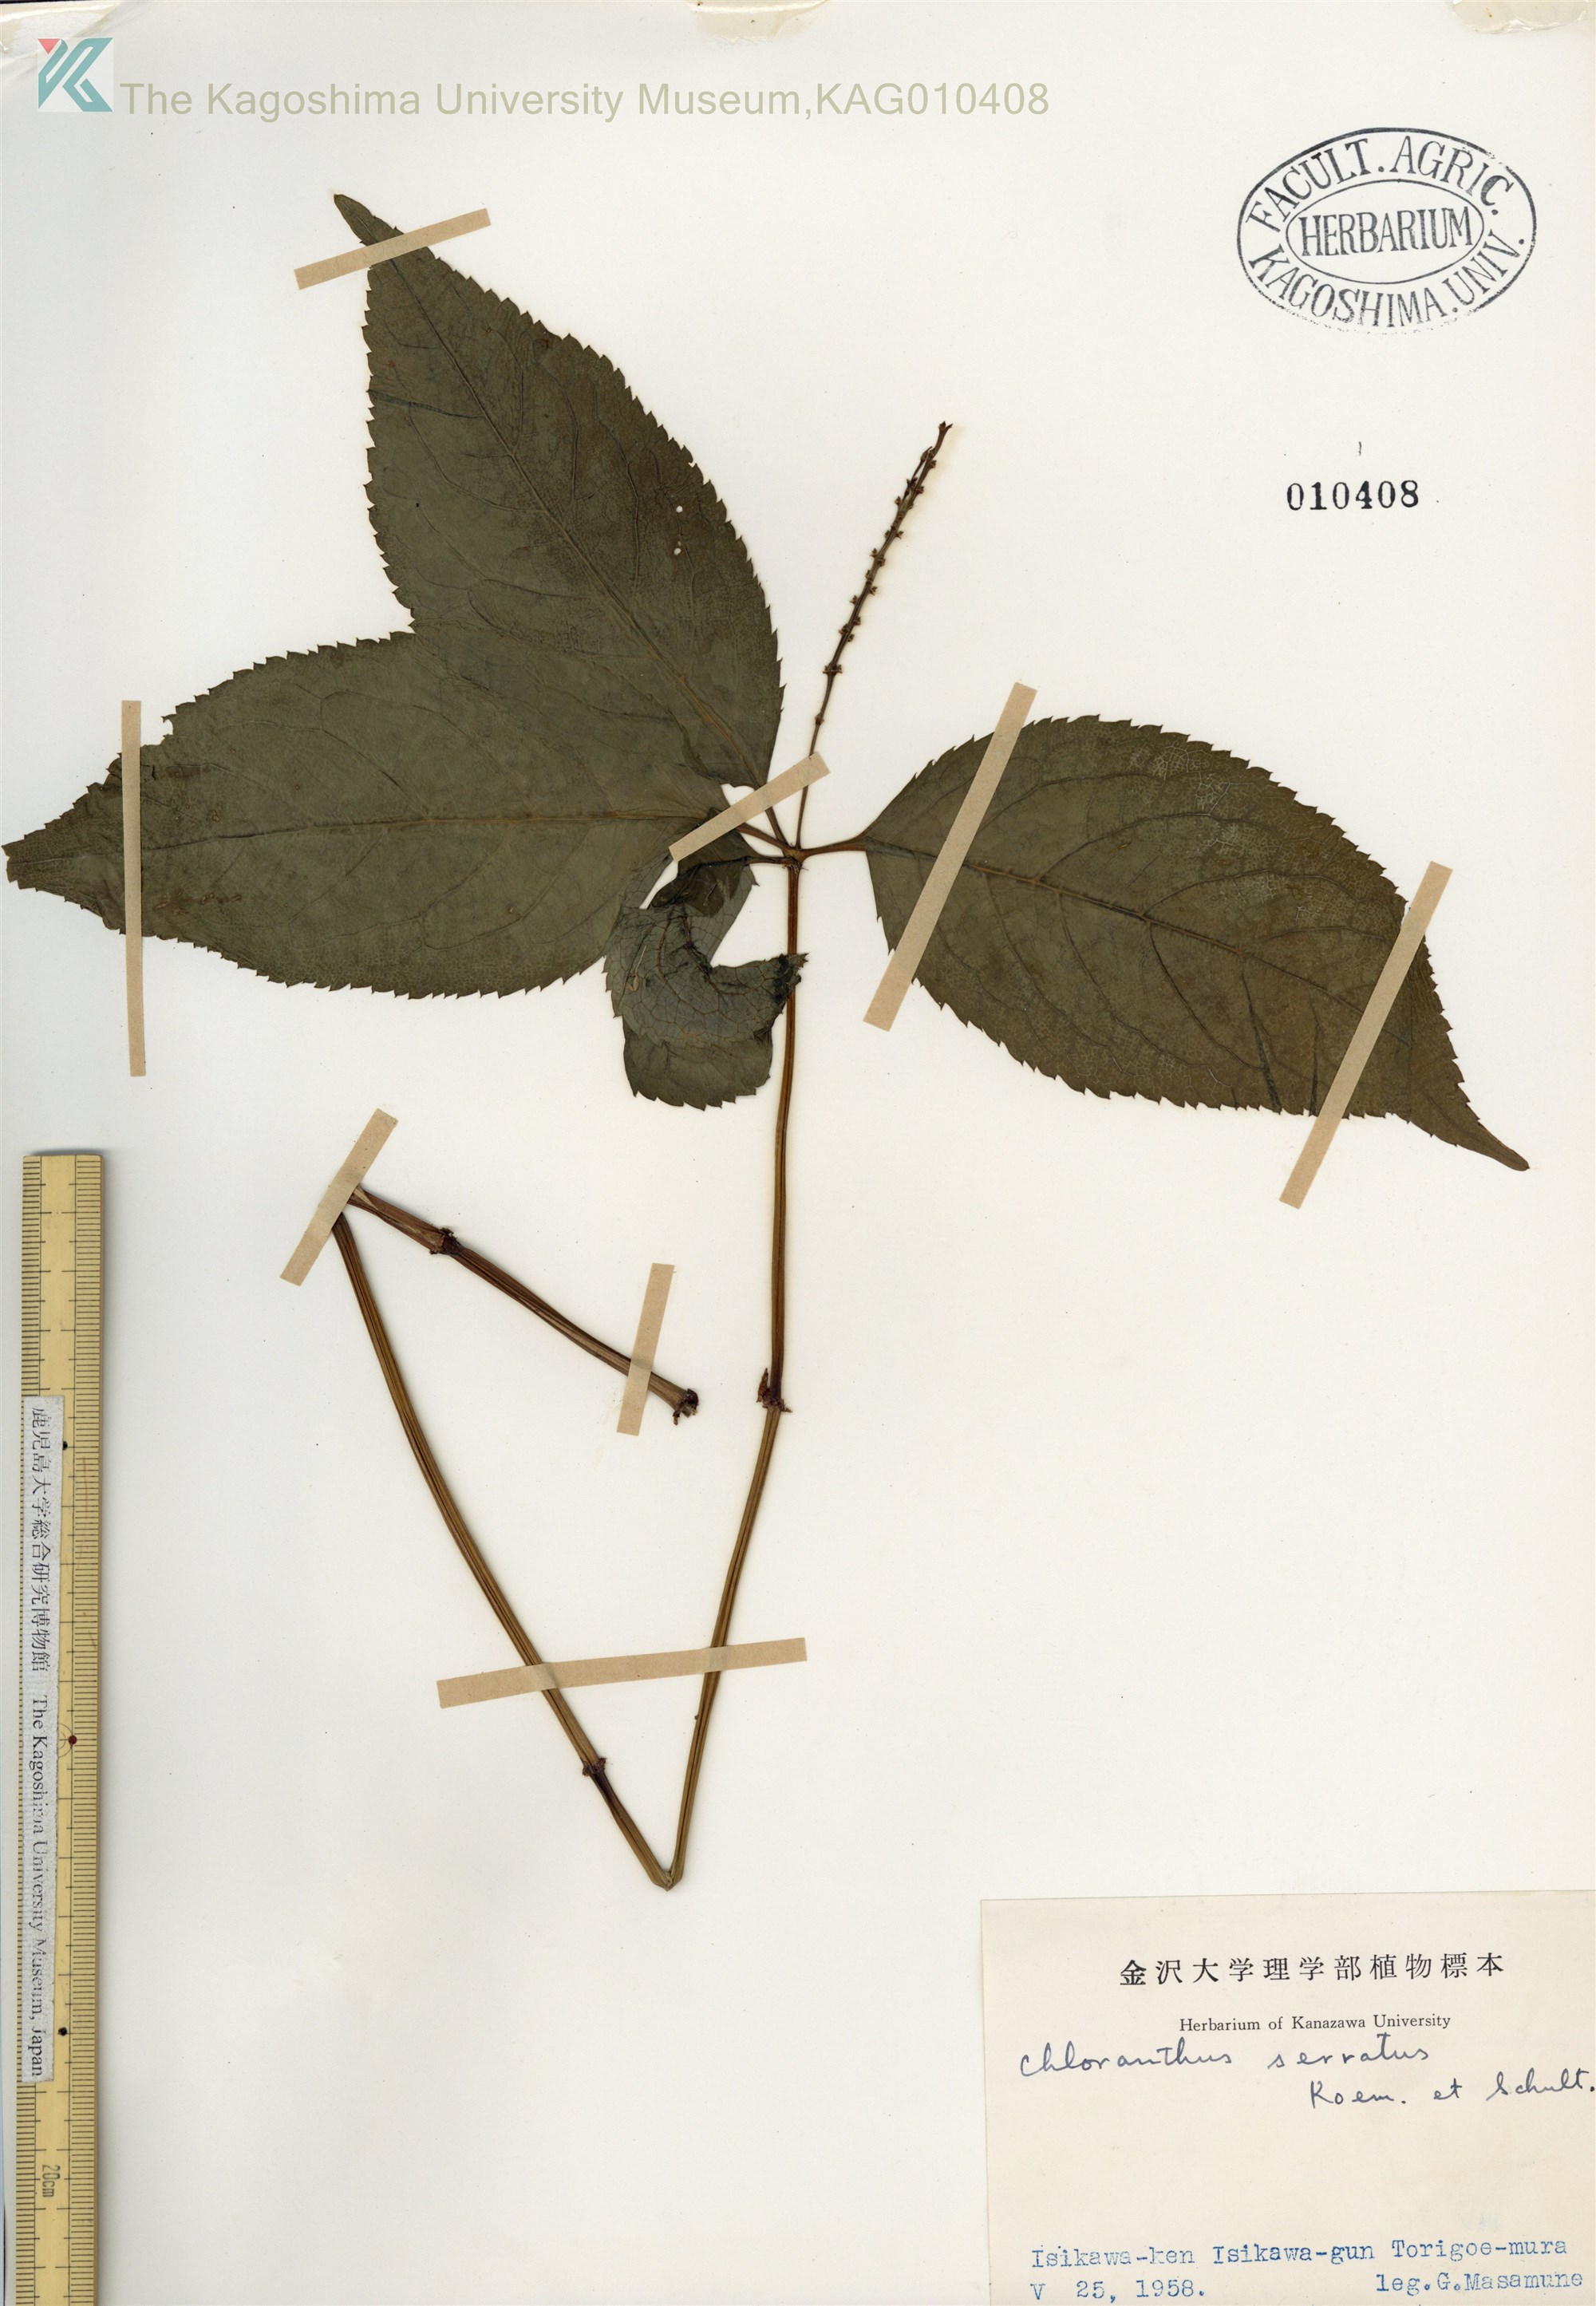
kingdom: Plantae
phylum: Tracheophyta
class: Magnoliopsida
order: Chloranthales
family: Chloranthaceae
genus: Chloranthus
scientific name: Chloranthus serratus
